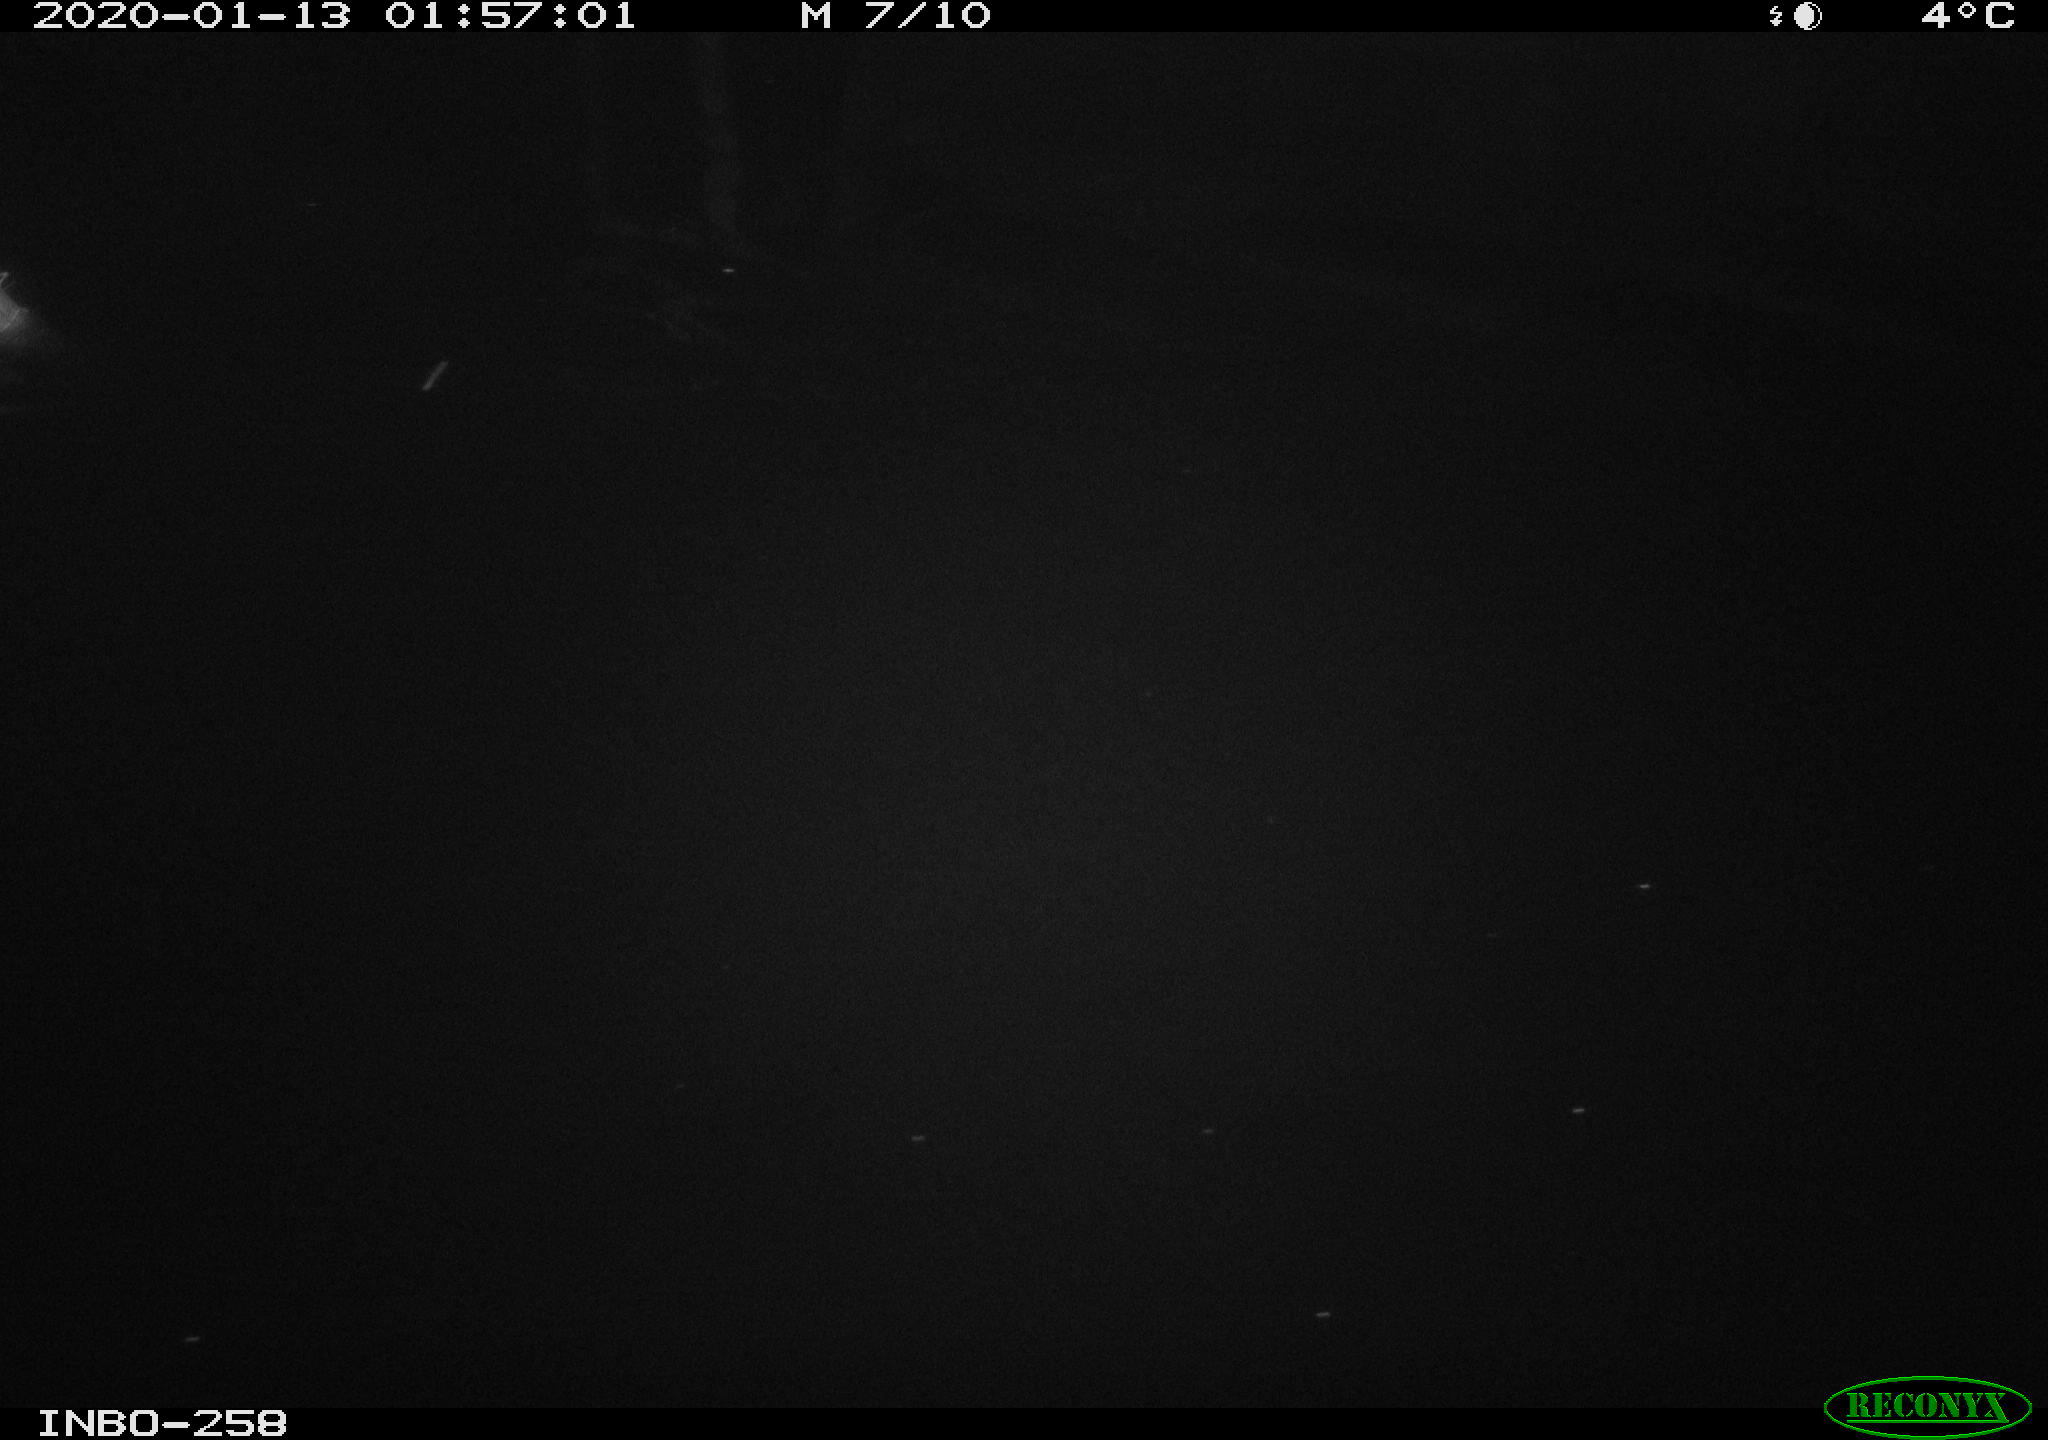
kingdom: Animalia
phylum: Chordata
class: Aves
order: Anseriformes
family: Anatidae
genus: Anas
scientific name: Anas platyrhynchos
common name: Mallard
